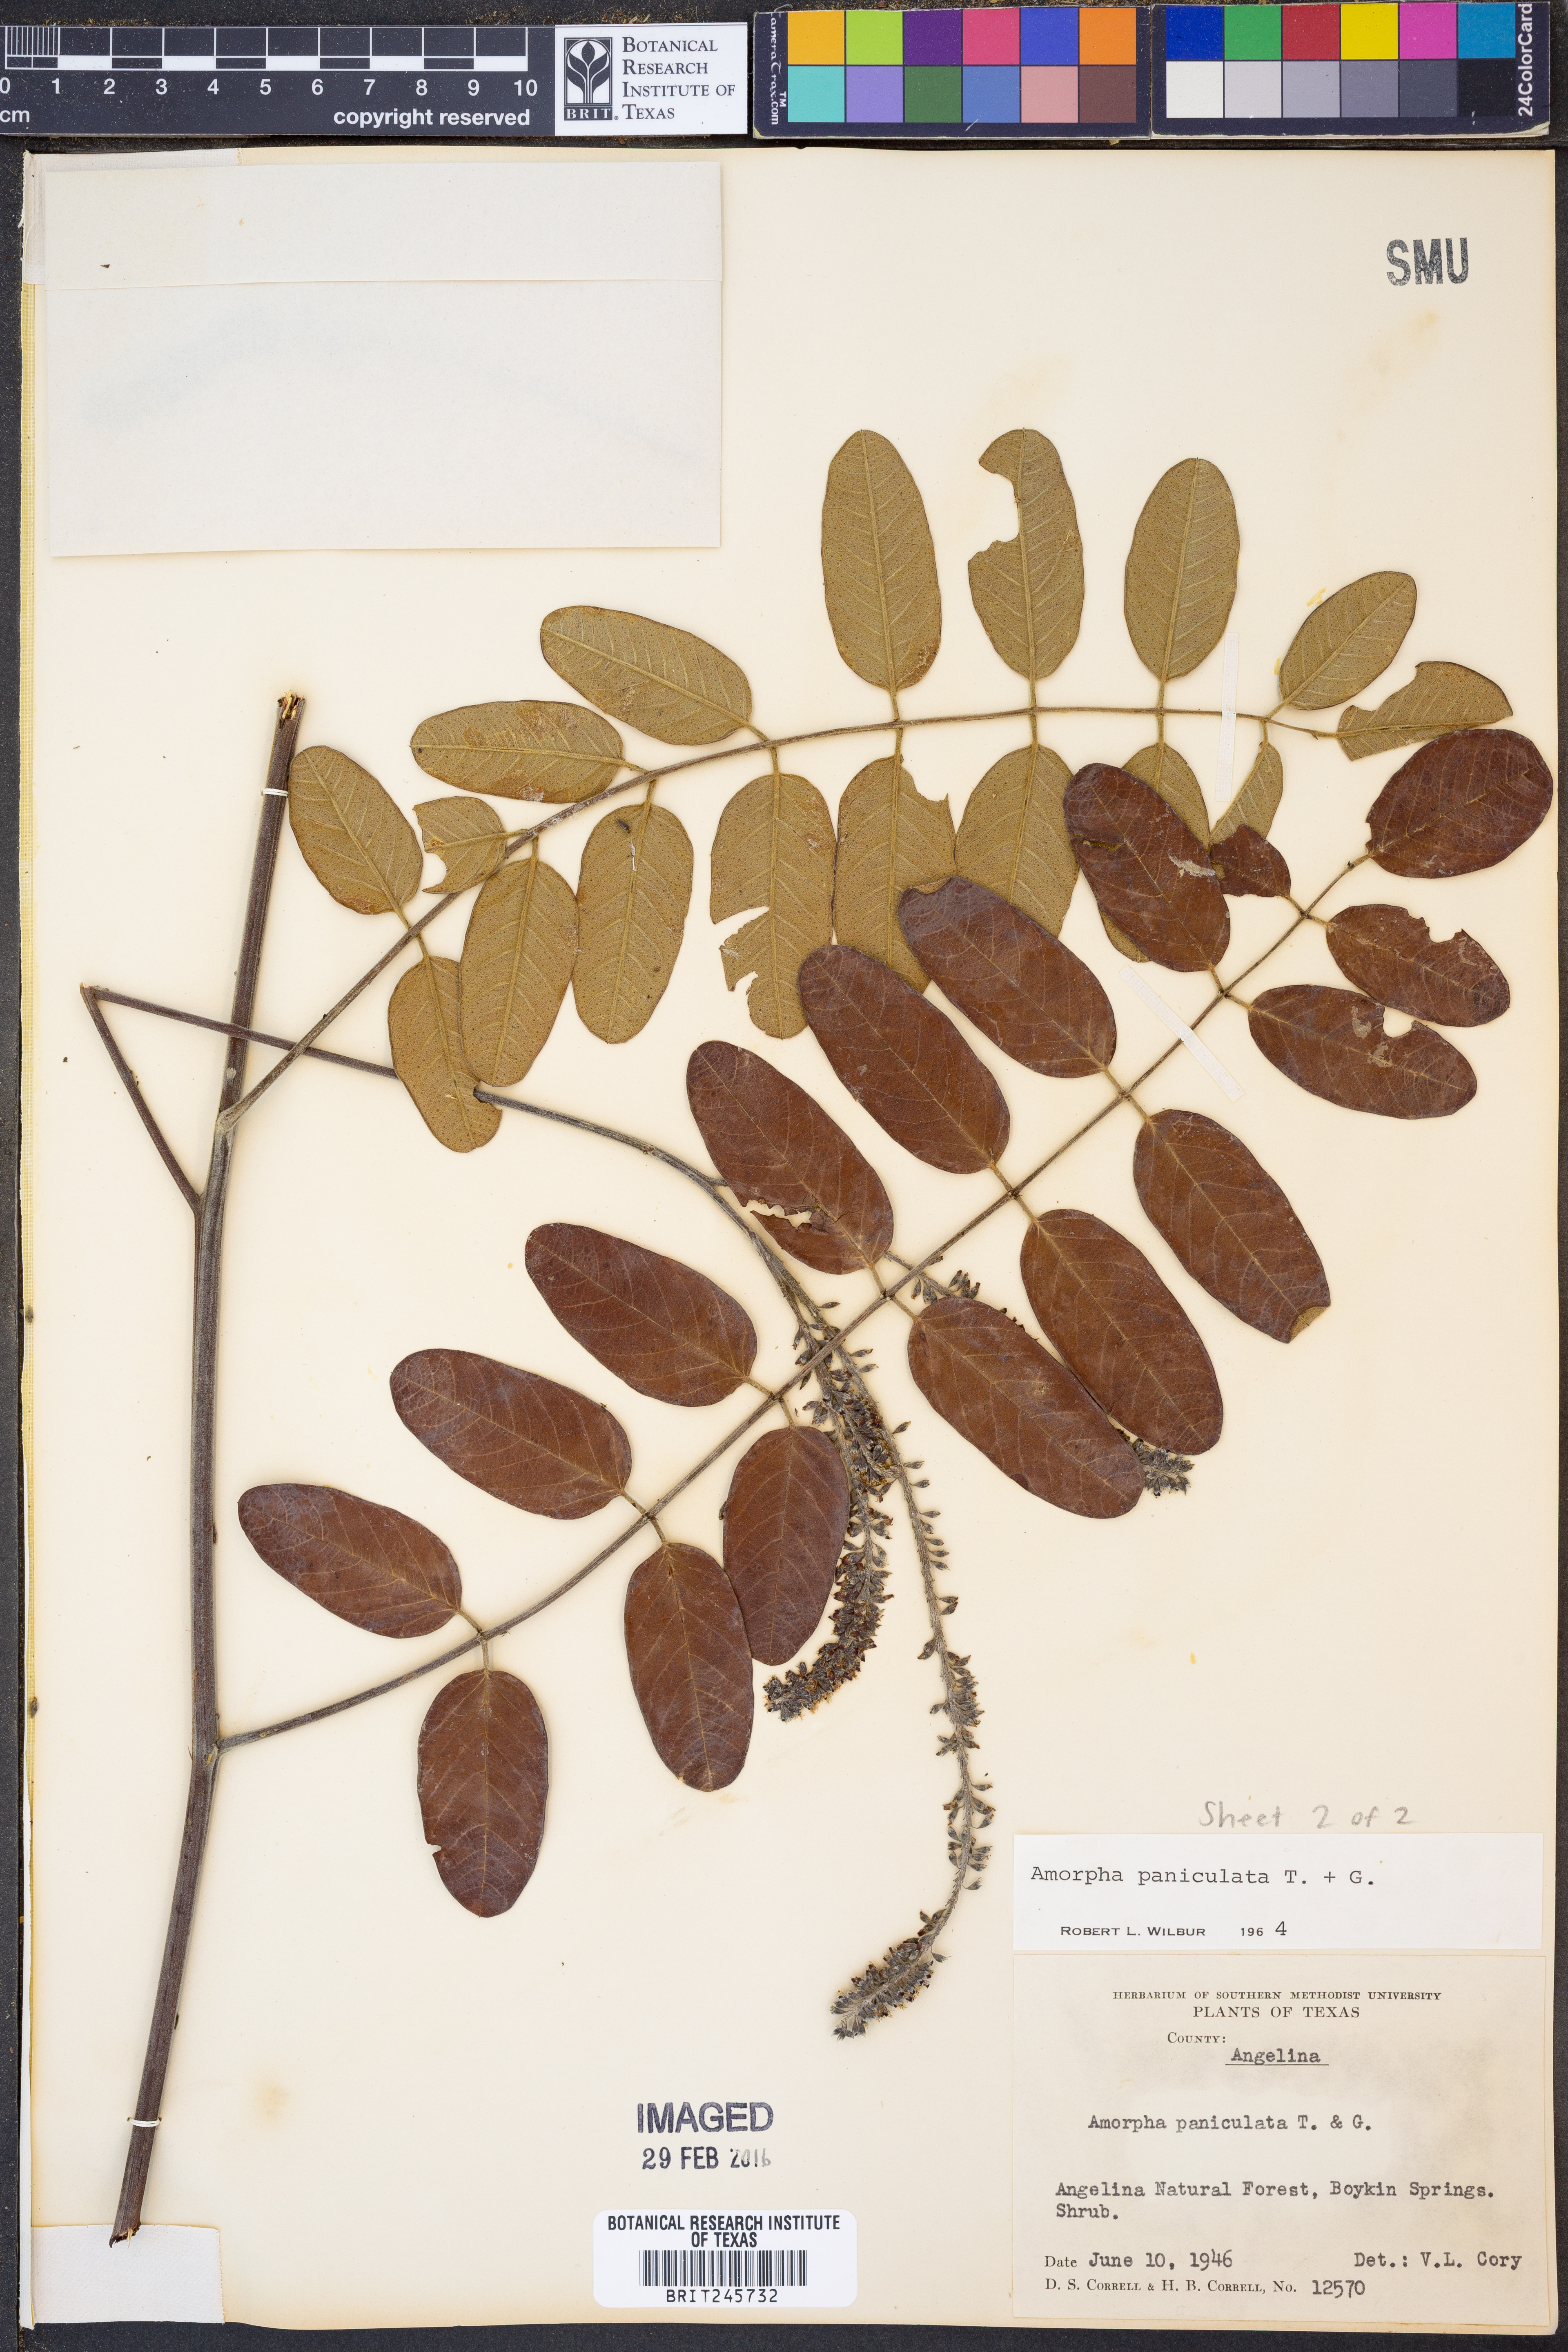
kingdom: Plantae
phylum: Tracheophyta
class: Magnoliopsida
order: Fabales
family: Fabaceae
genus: Amorpha
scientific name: Amorpha paniculata
